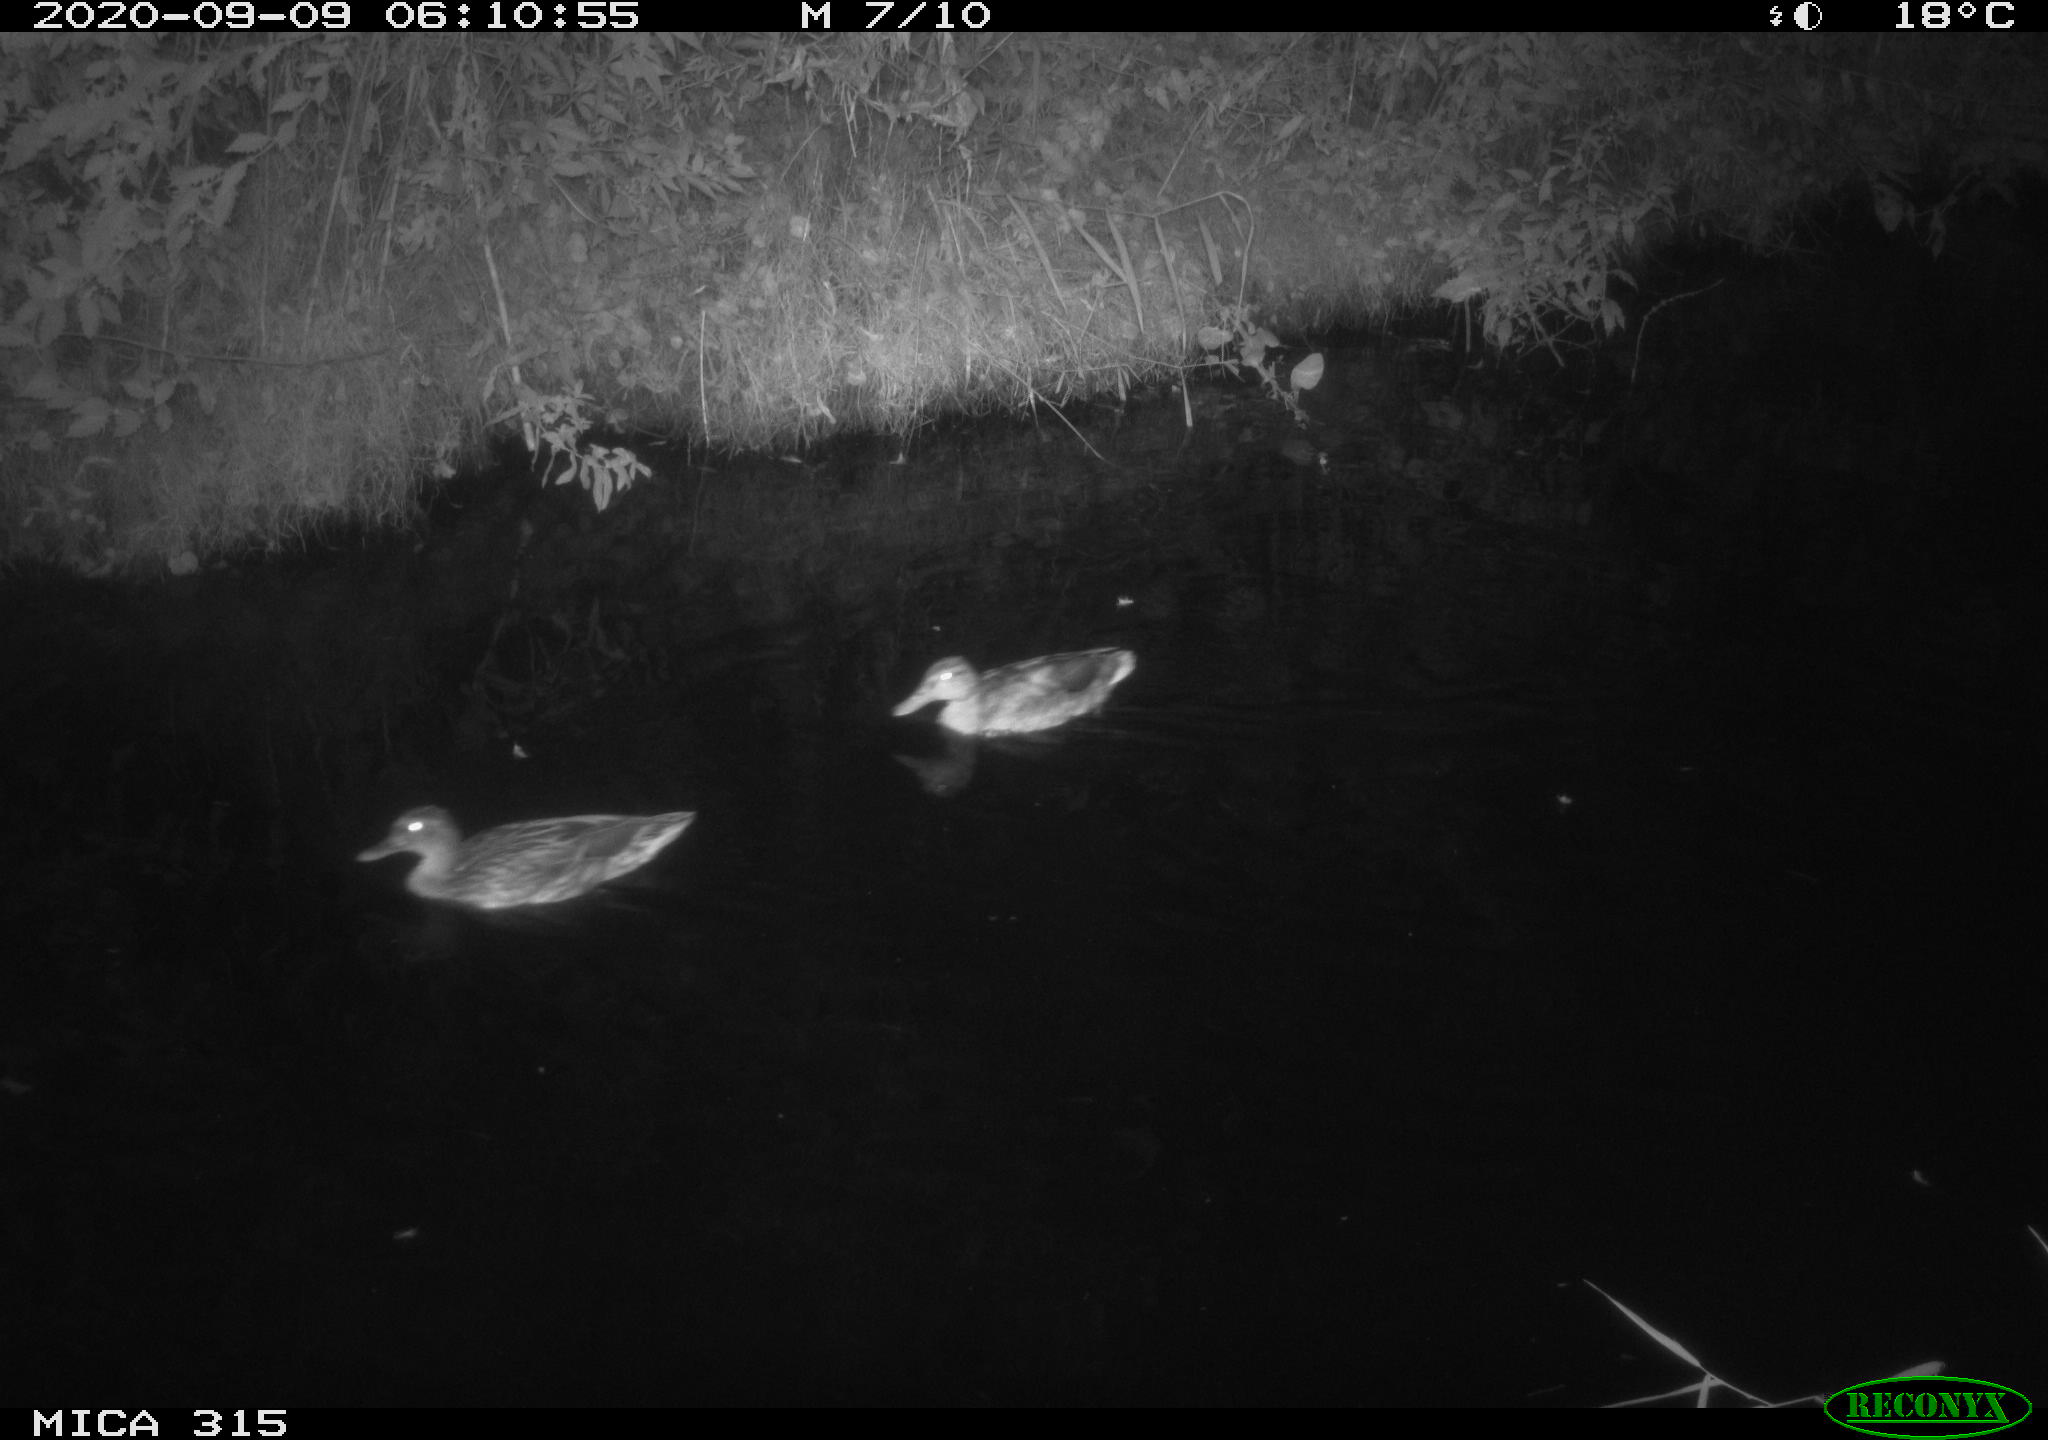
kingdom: Animalia
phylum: Chordata
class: Aves
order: Anseriformes
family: Anatidae
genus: Anas
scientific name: Anas platyrhynchos
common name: Mallard
